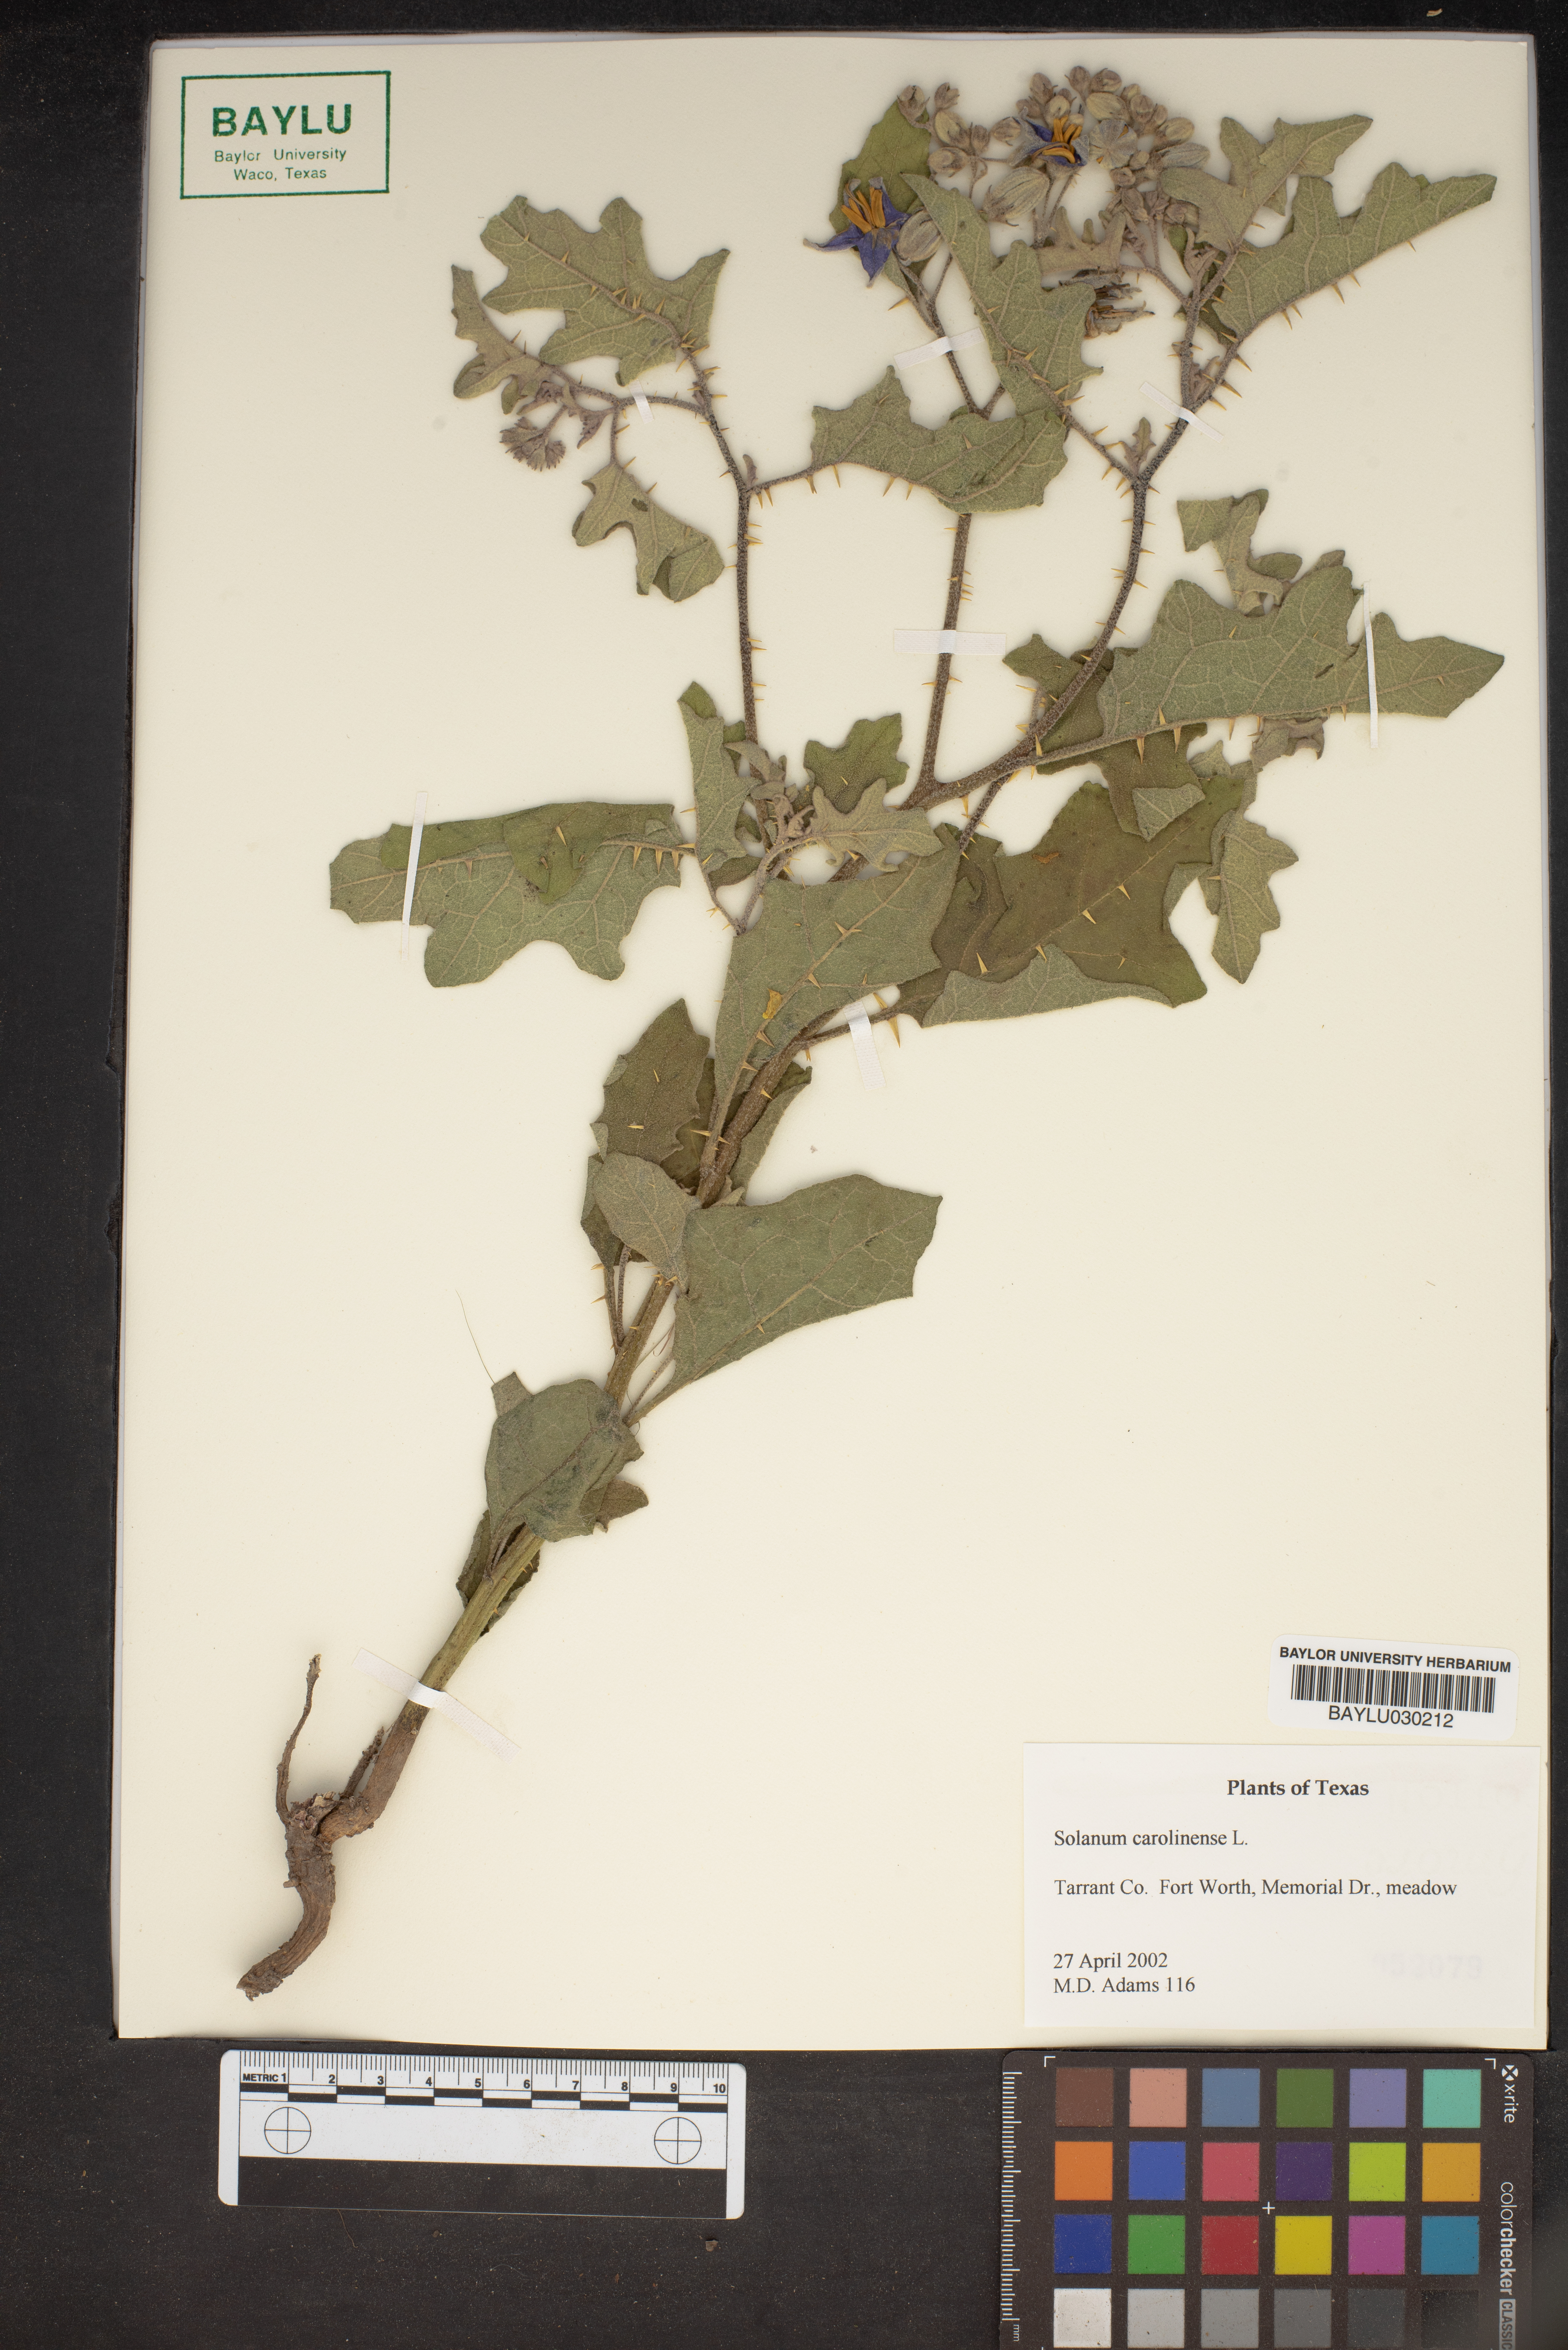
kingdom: Plantae
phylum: Tracheophyta
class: Magnoliopsida
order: Solanales
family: Solanaceae
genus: Solanum
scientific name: Solanum carolinense
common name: Horse-nettle
